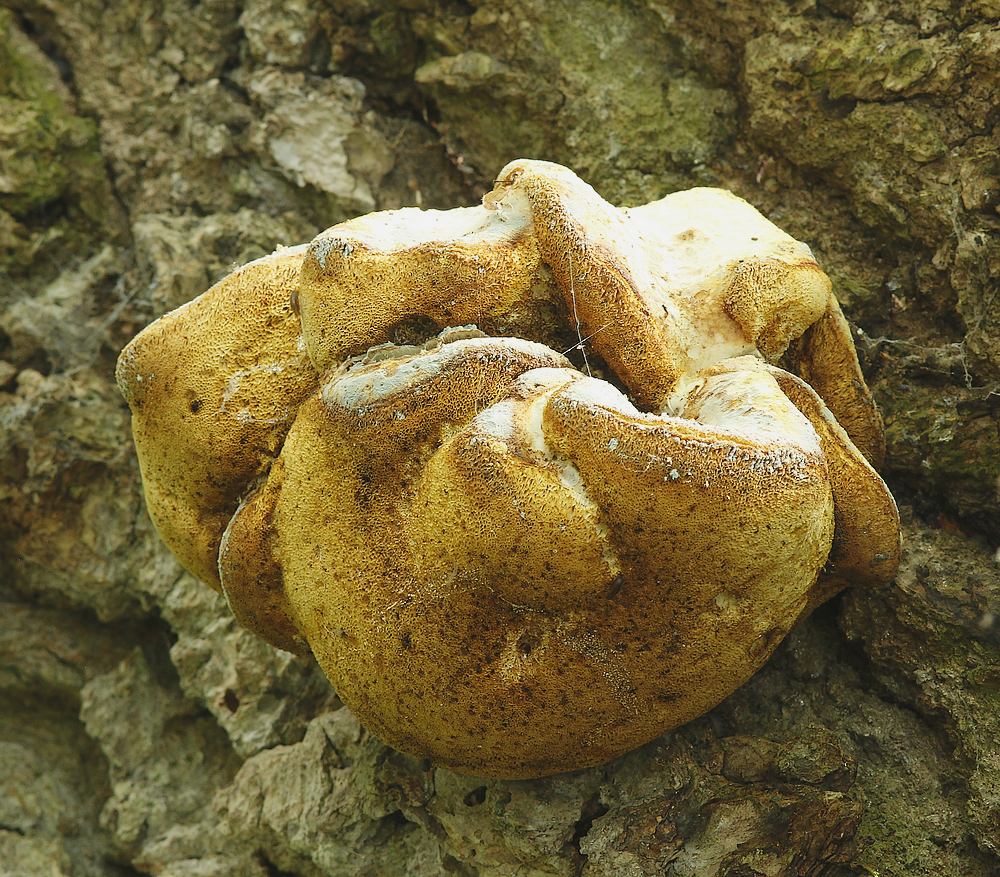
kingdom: Fungi
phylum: Basidiomycota
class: Agaricomycetes
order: Polyporales
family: Fomitopsidaceae
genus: Buglossoporus
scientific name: Buglossoporus quercinus
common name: egetunge
